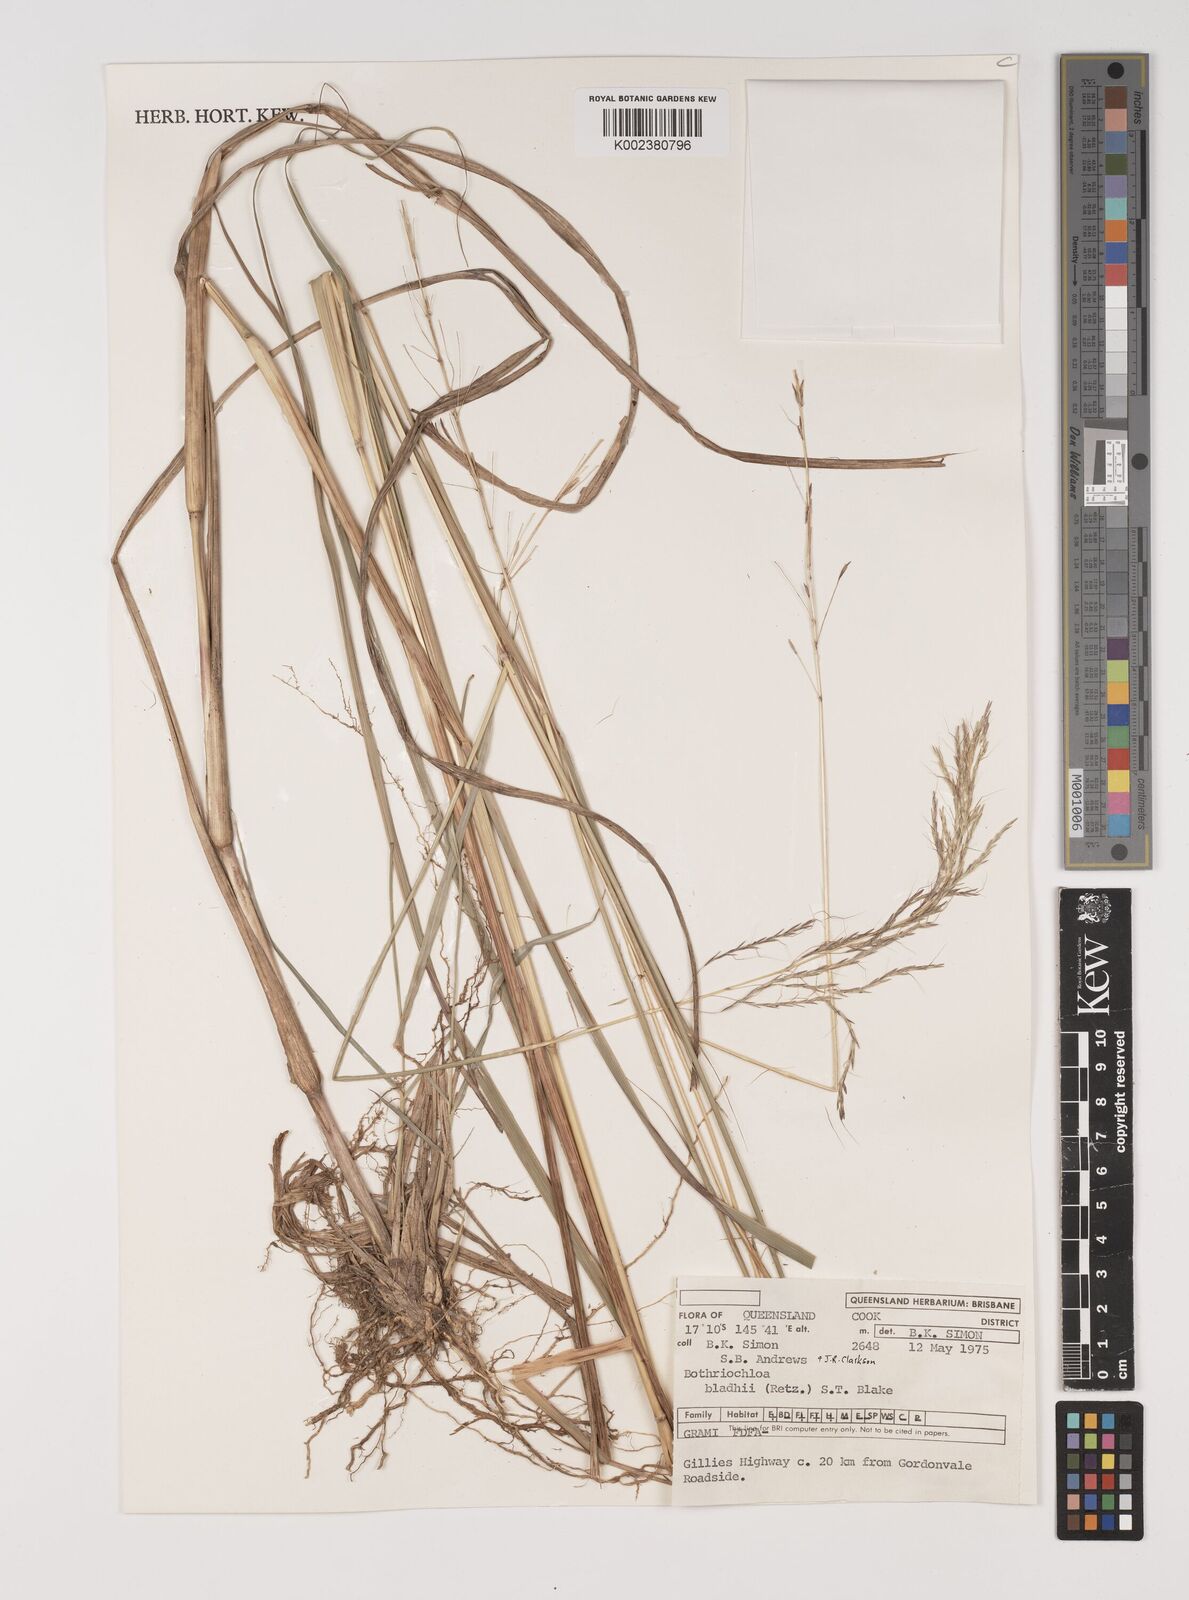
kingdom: Plantae
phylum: Tracheophyta
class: Liliopsida
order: Poales
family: Poaceae
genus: Bothriochloa
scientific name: Bothriochloa bladhii
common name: Caucasian bluestem
